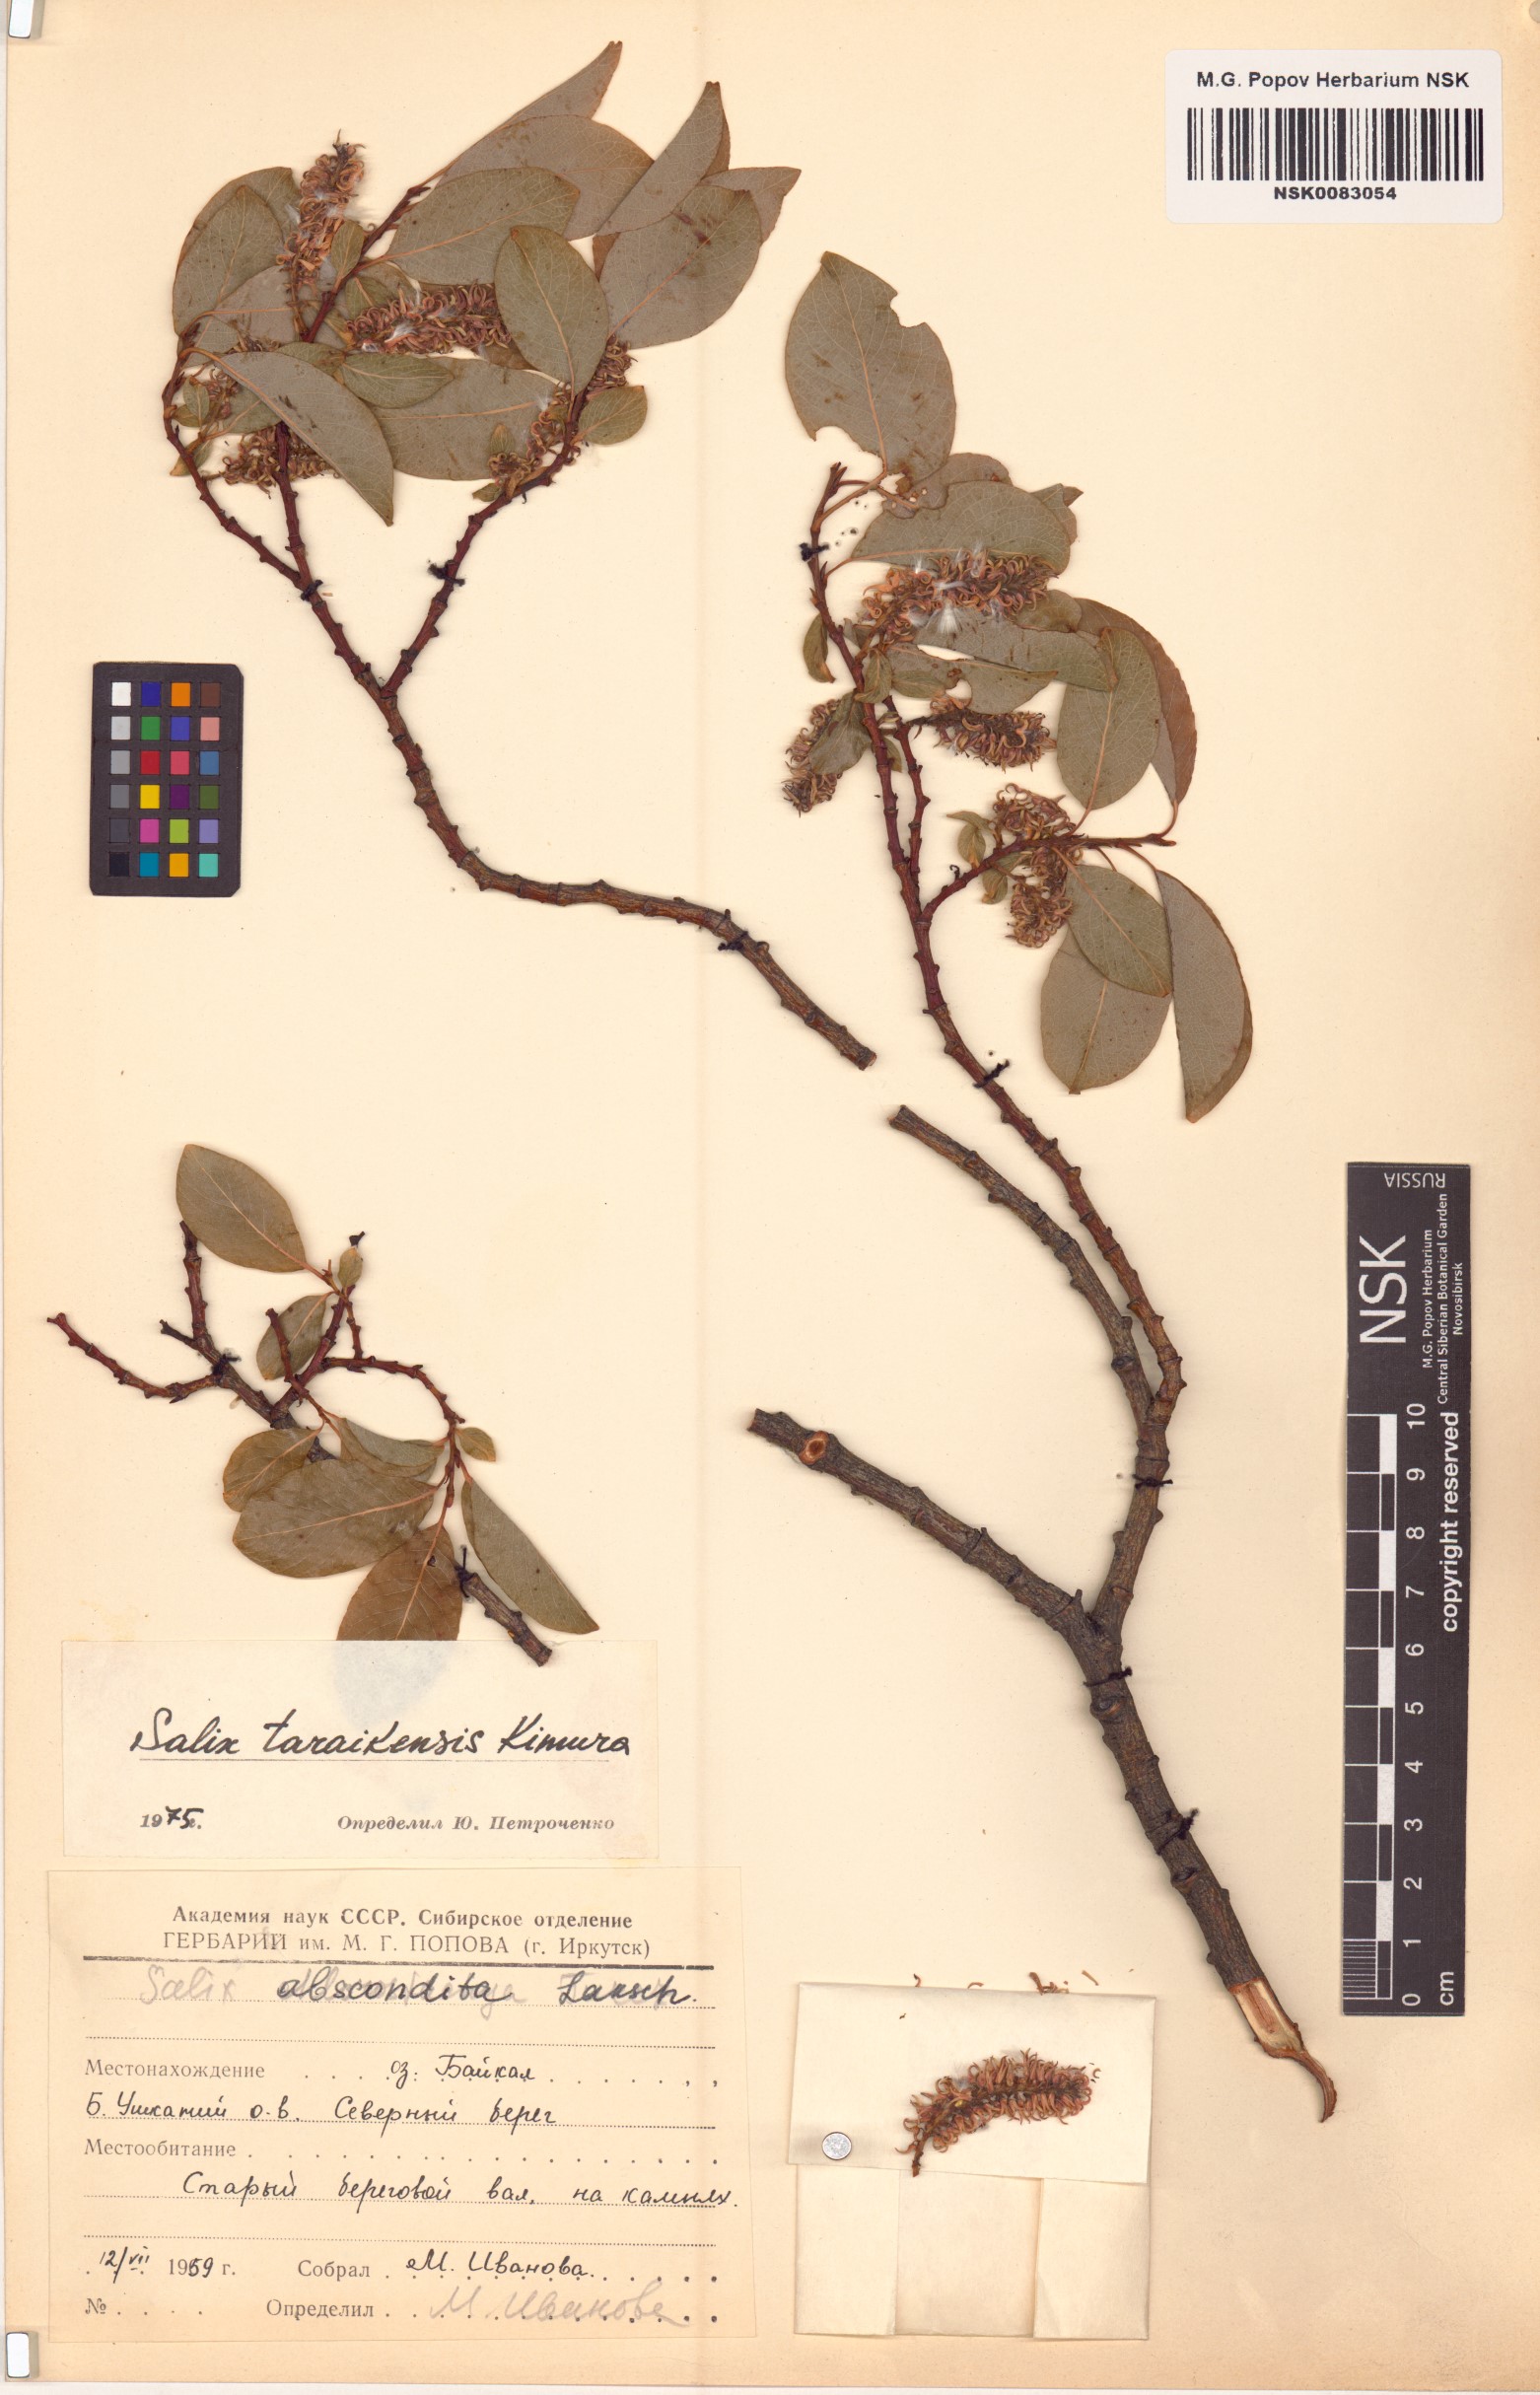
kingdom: Plantae
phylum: Tracheophyta
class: Magnoliopsida
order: Malpighiales
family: Salicaceae
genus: Salix
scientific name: Salix taraikensis
